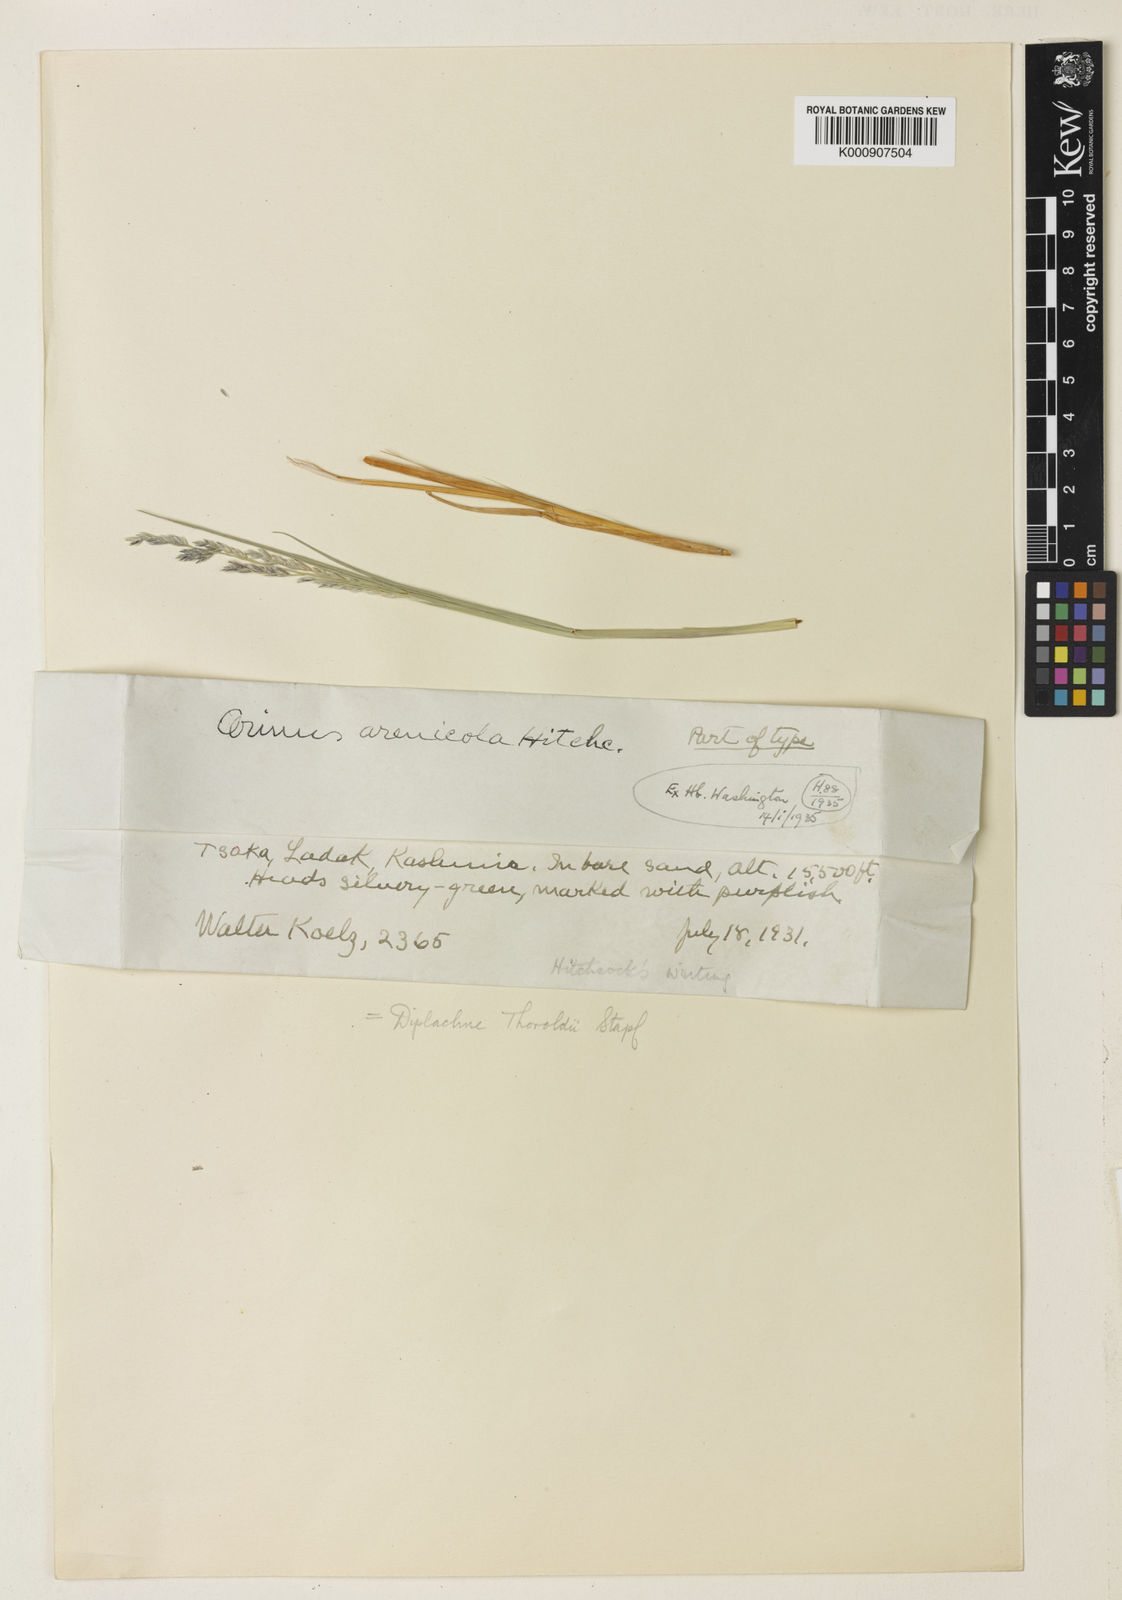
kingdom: Plantae
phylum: Tracheophyta
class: Liliopsida
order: Poales
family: Poaceae
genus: Orinus
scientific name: Orinus thoroldii
